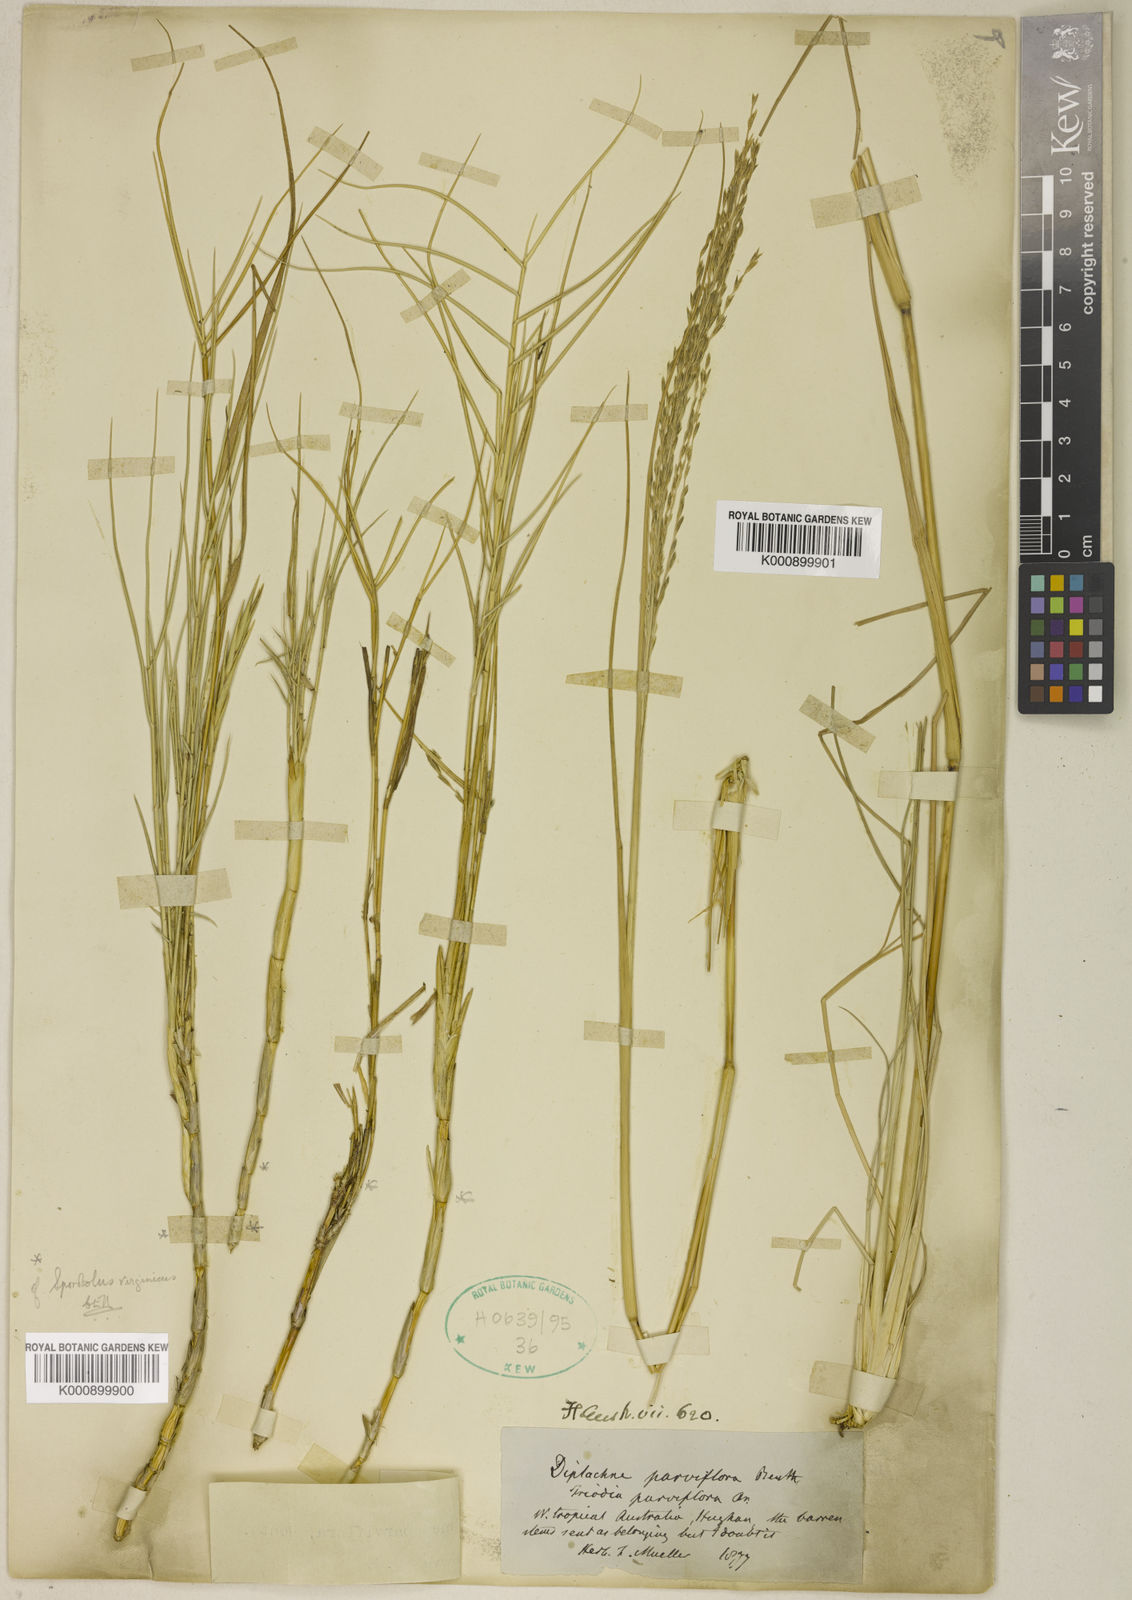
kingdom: Plantae
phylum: Tracheophyta
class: Liliopsida
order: Poales
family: Poaceae
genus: Diplachne
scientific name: Diplachne fusca
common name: Brown beetle grass
